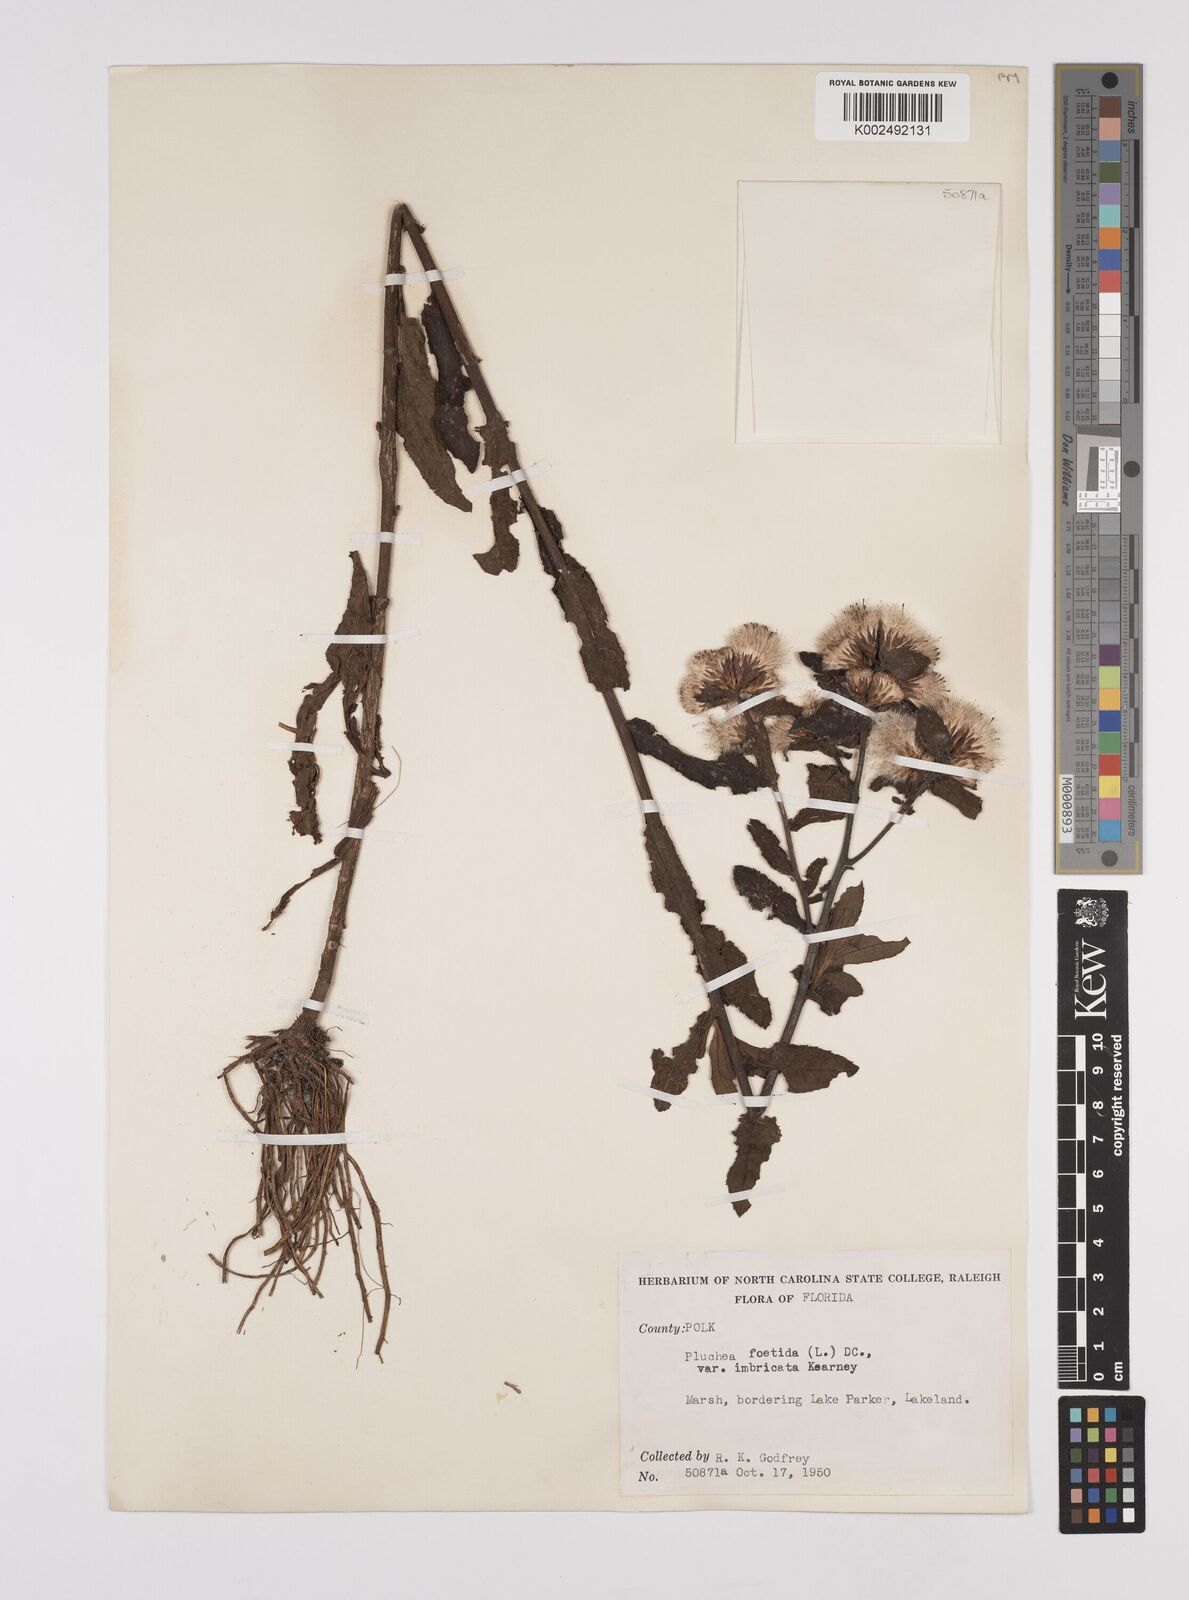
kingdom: Plantae
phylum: Tracheophyta
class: Magnoliopsida
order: Asterales
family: Asteraceae
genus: Pluchea
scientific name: Pluchea foetida
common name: Stinking camphorweed
